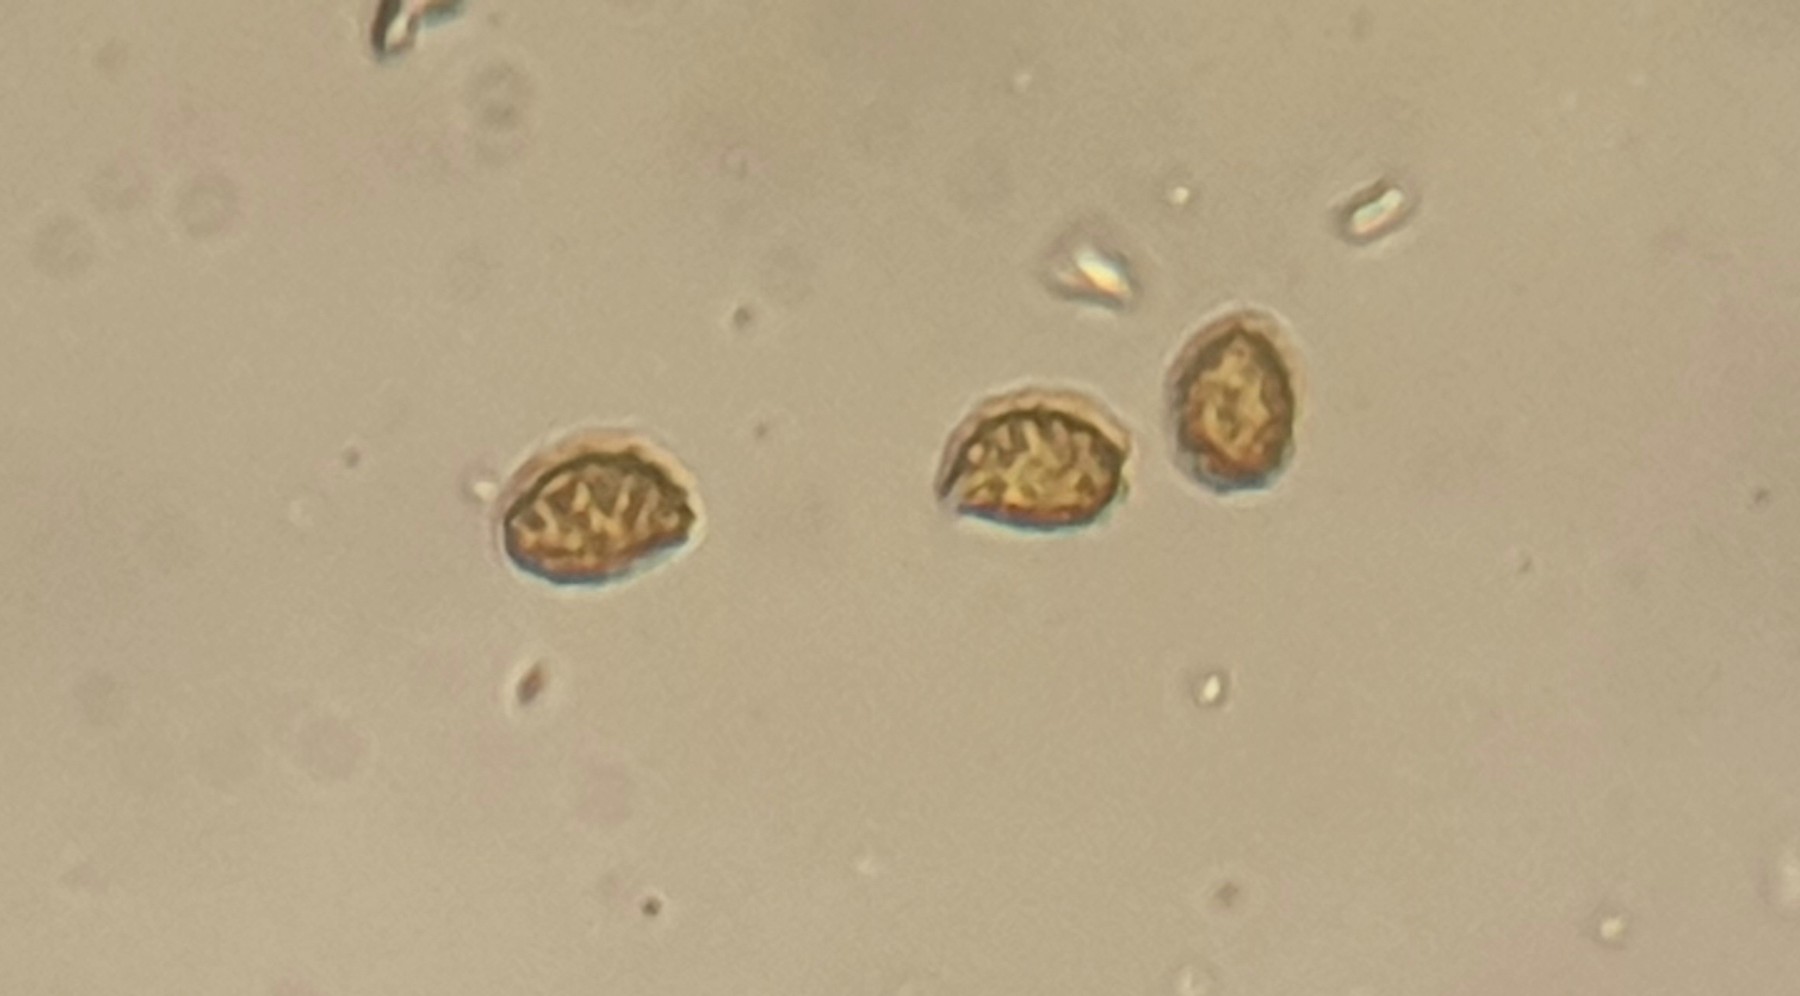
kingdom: Fungi
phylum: Basidiomycota
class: Agaricomycetes
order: Agaricales
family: Cortinariaceae
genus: Cortinarius
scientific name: Cortinarius suberythrinus
